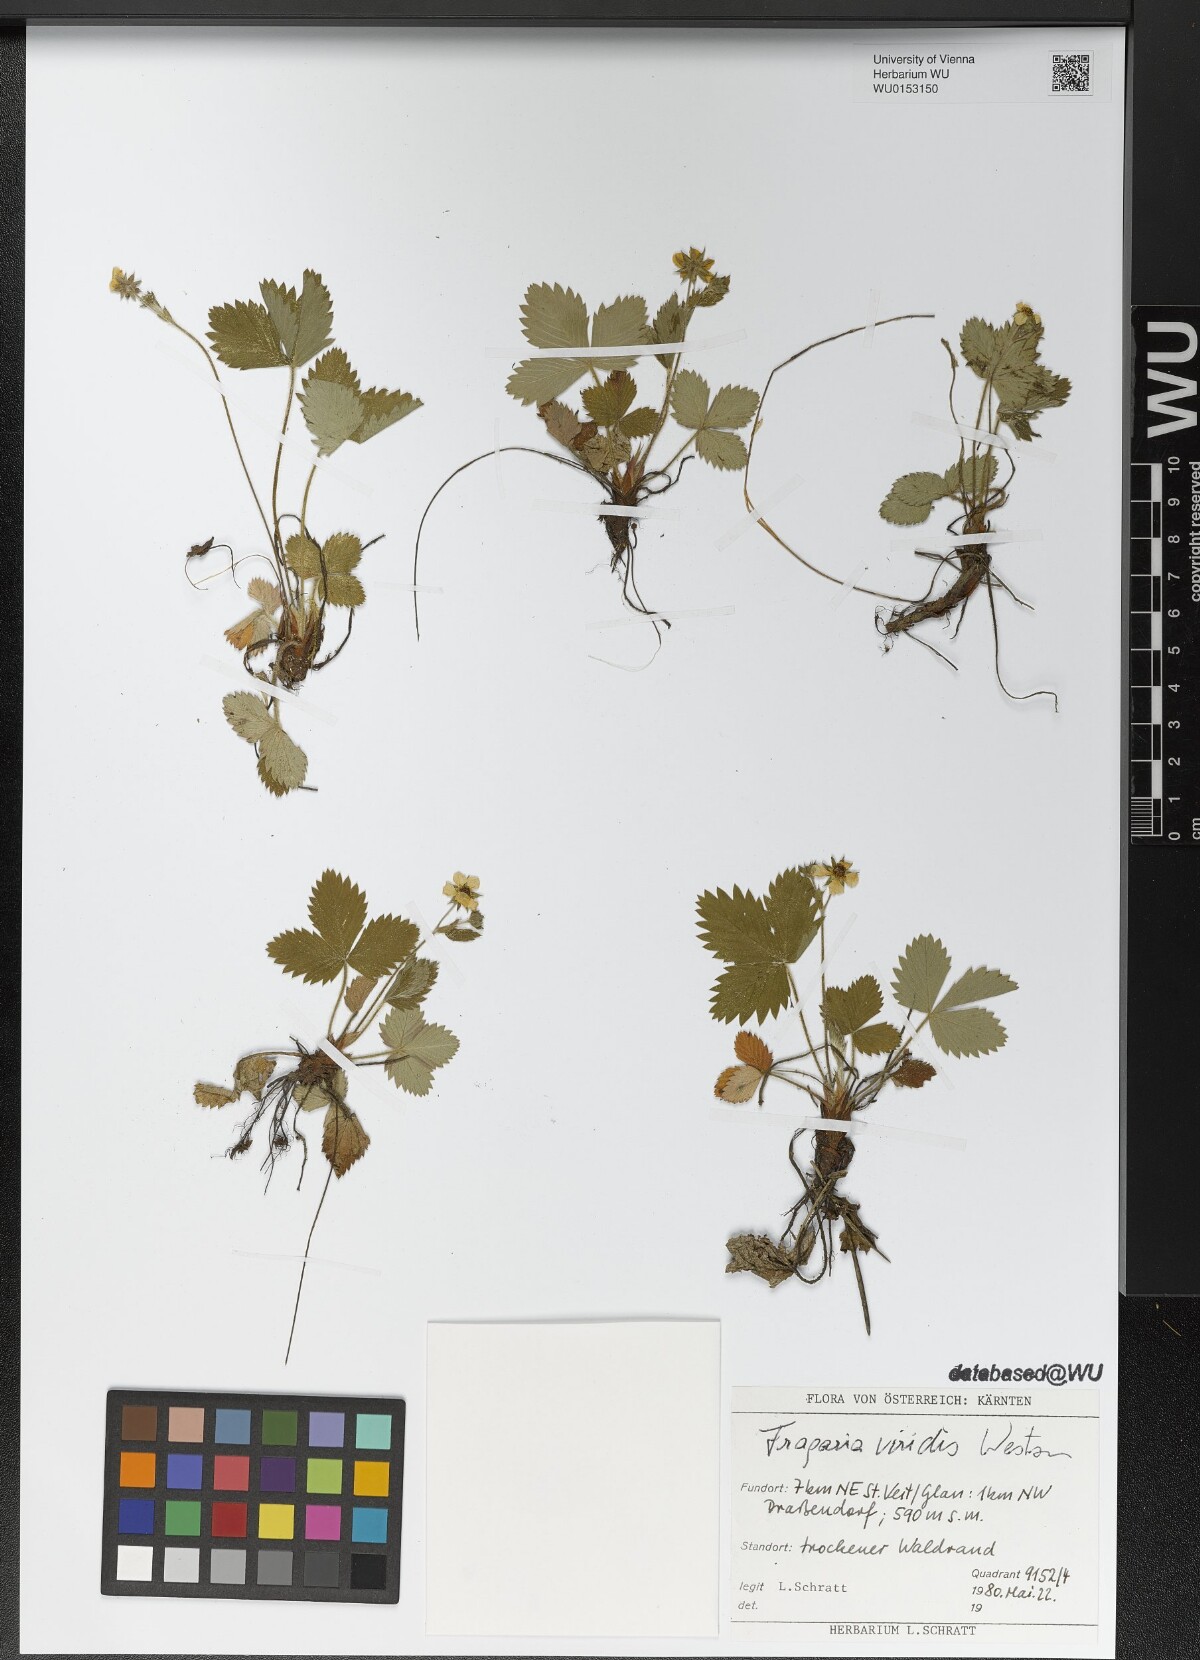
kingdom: Plantae
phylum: Tracheophyta
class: Magnoliopsida
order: Rosales
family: Rosaceae
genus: Fragaria
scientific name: Fragaria viridis
